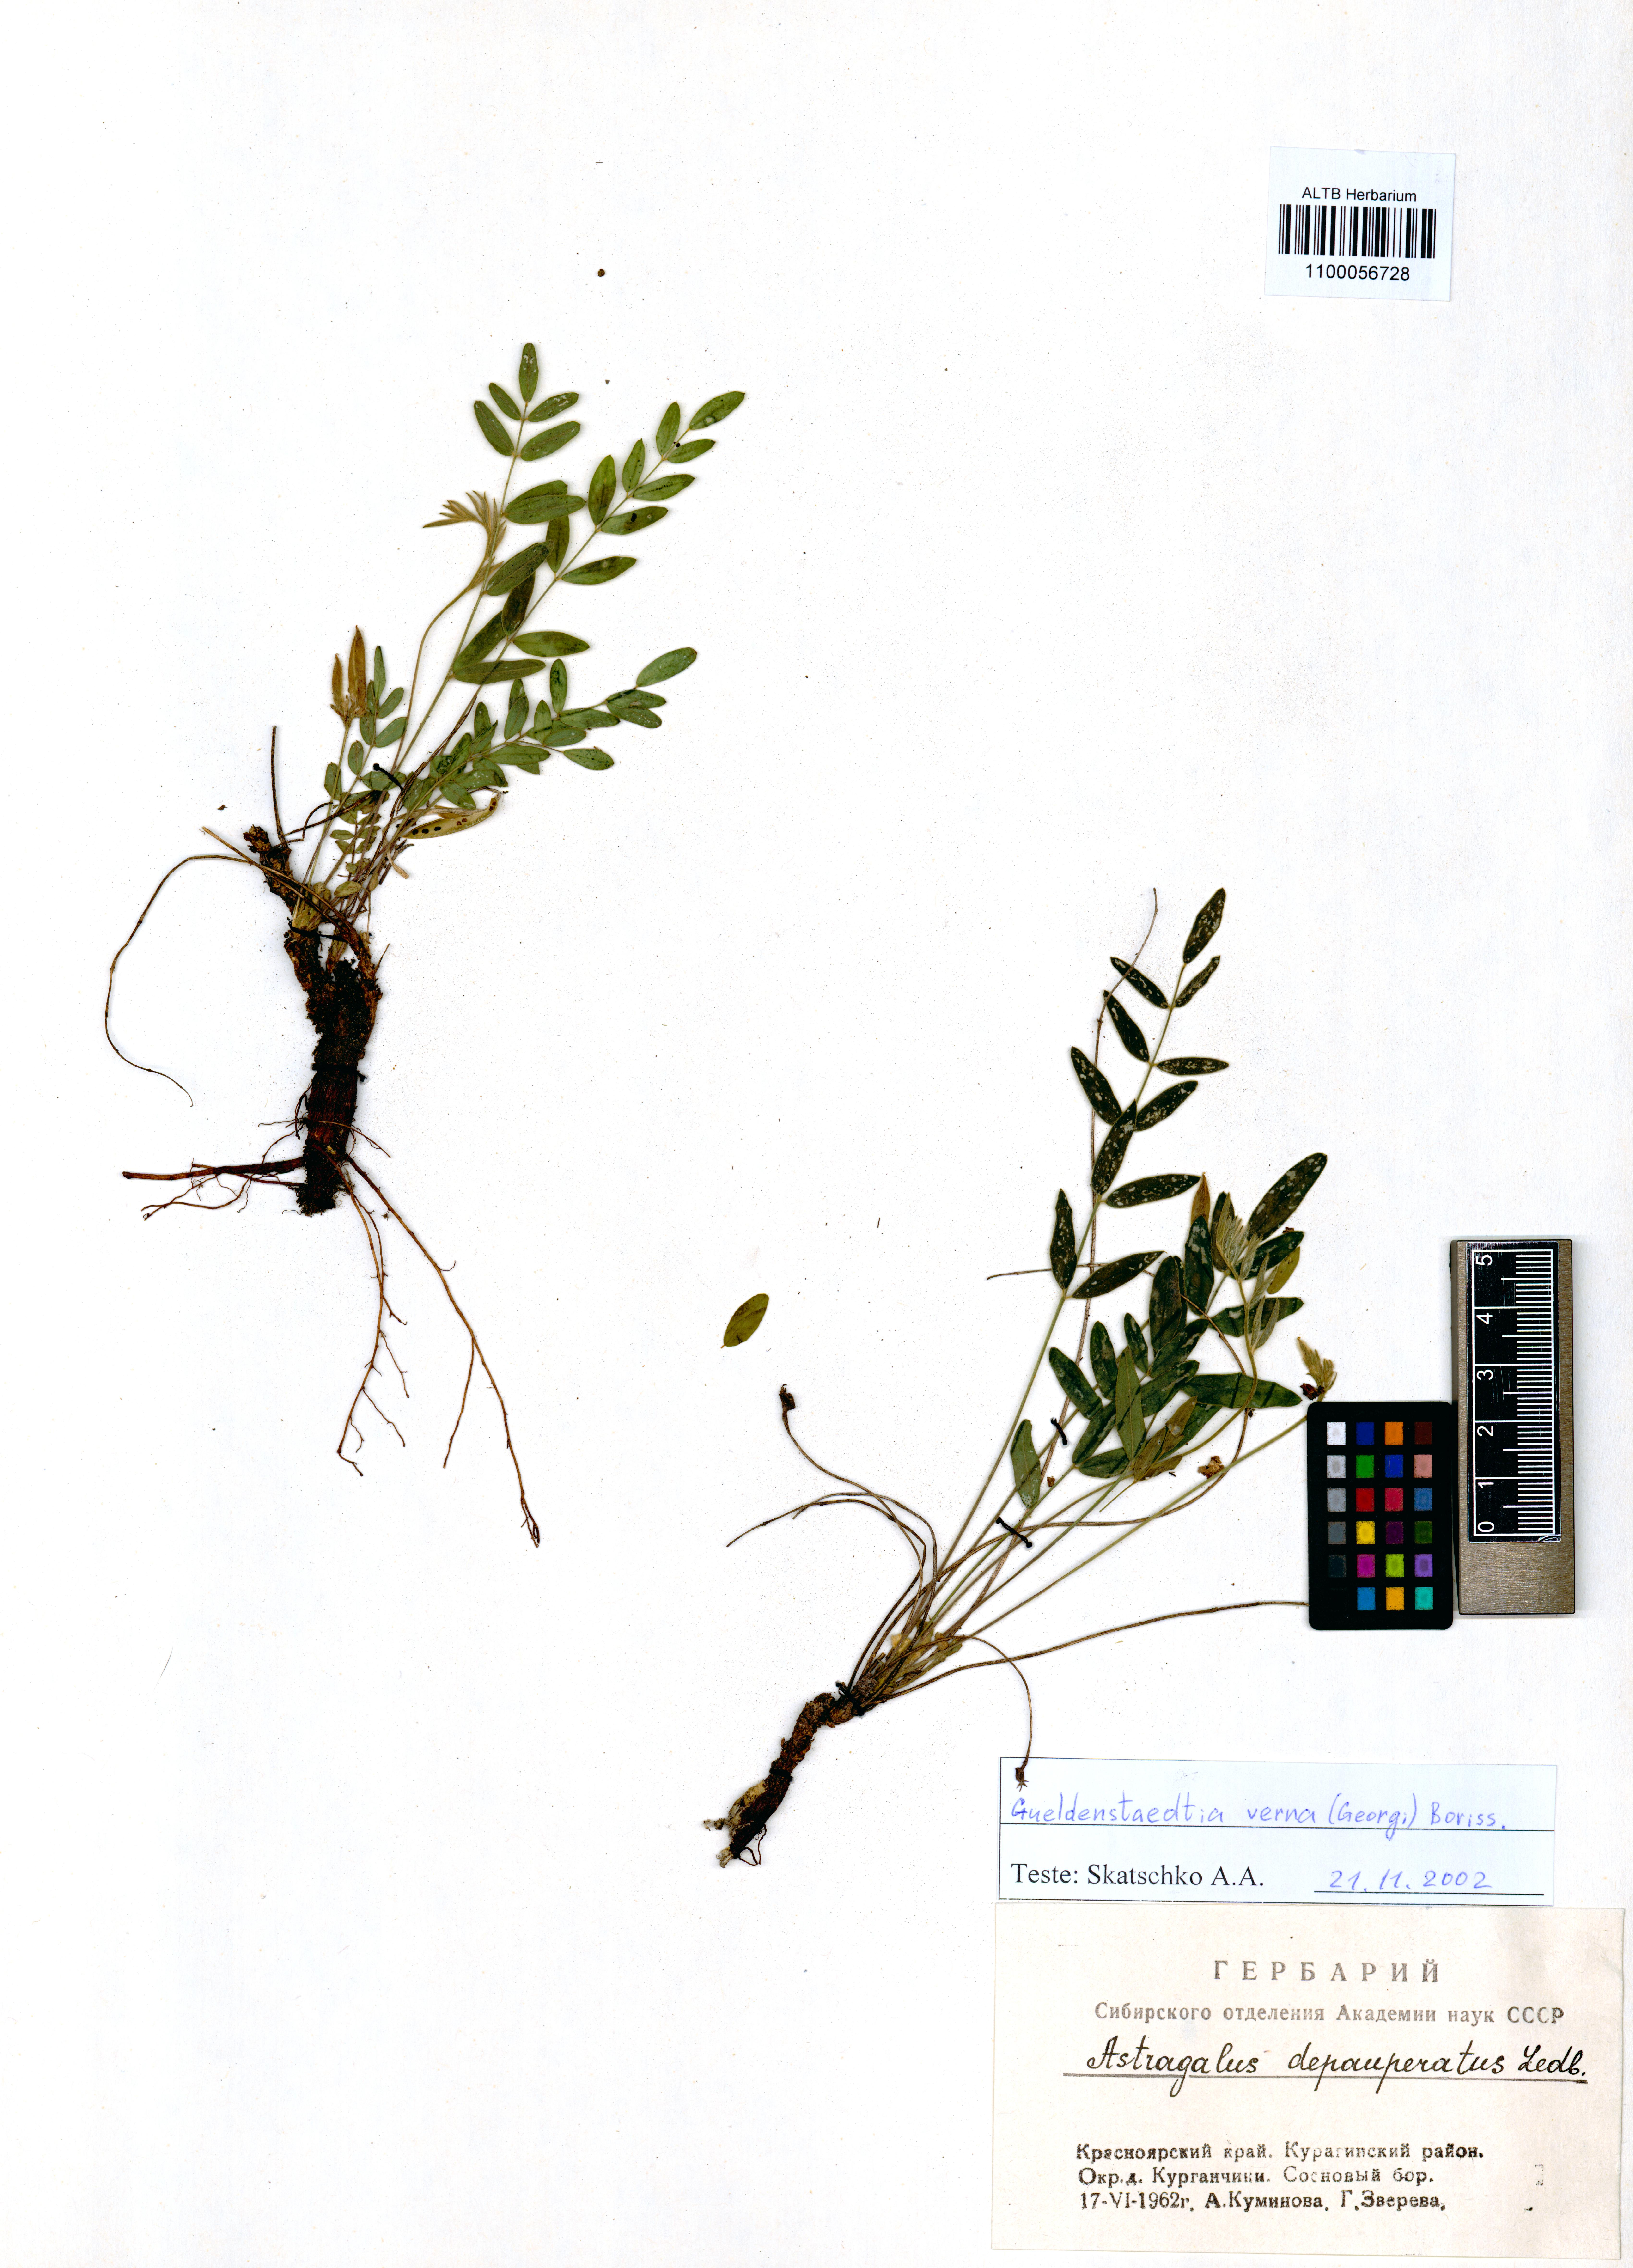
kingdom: Plantae
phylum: Tracheophyta
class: Magnoliopsida
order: Fabales
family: Fabaceae
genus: Gueldenstaedtia
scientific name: Gueldenstaedtia verna
